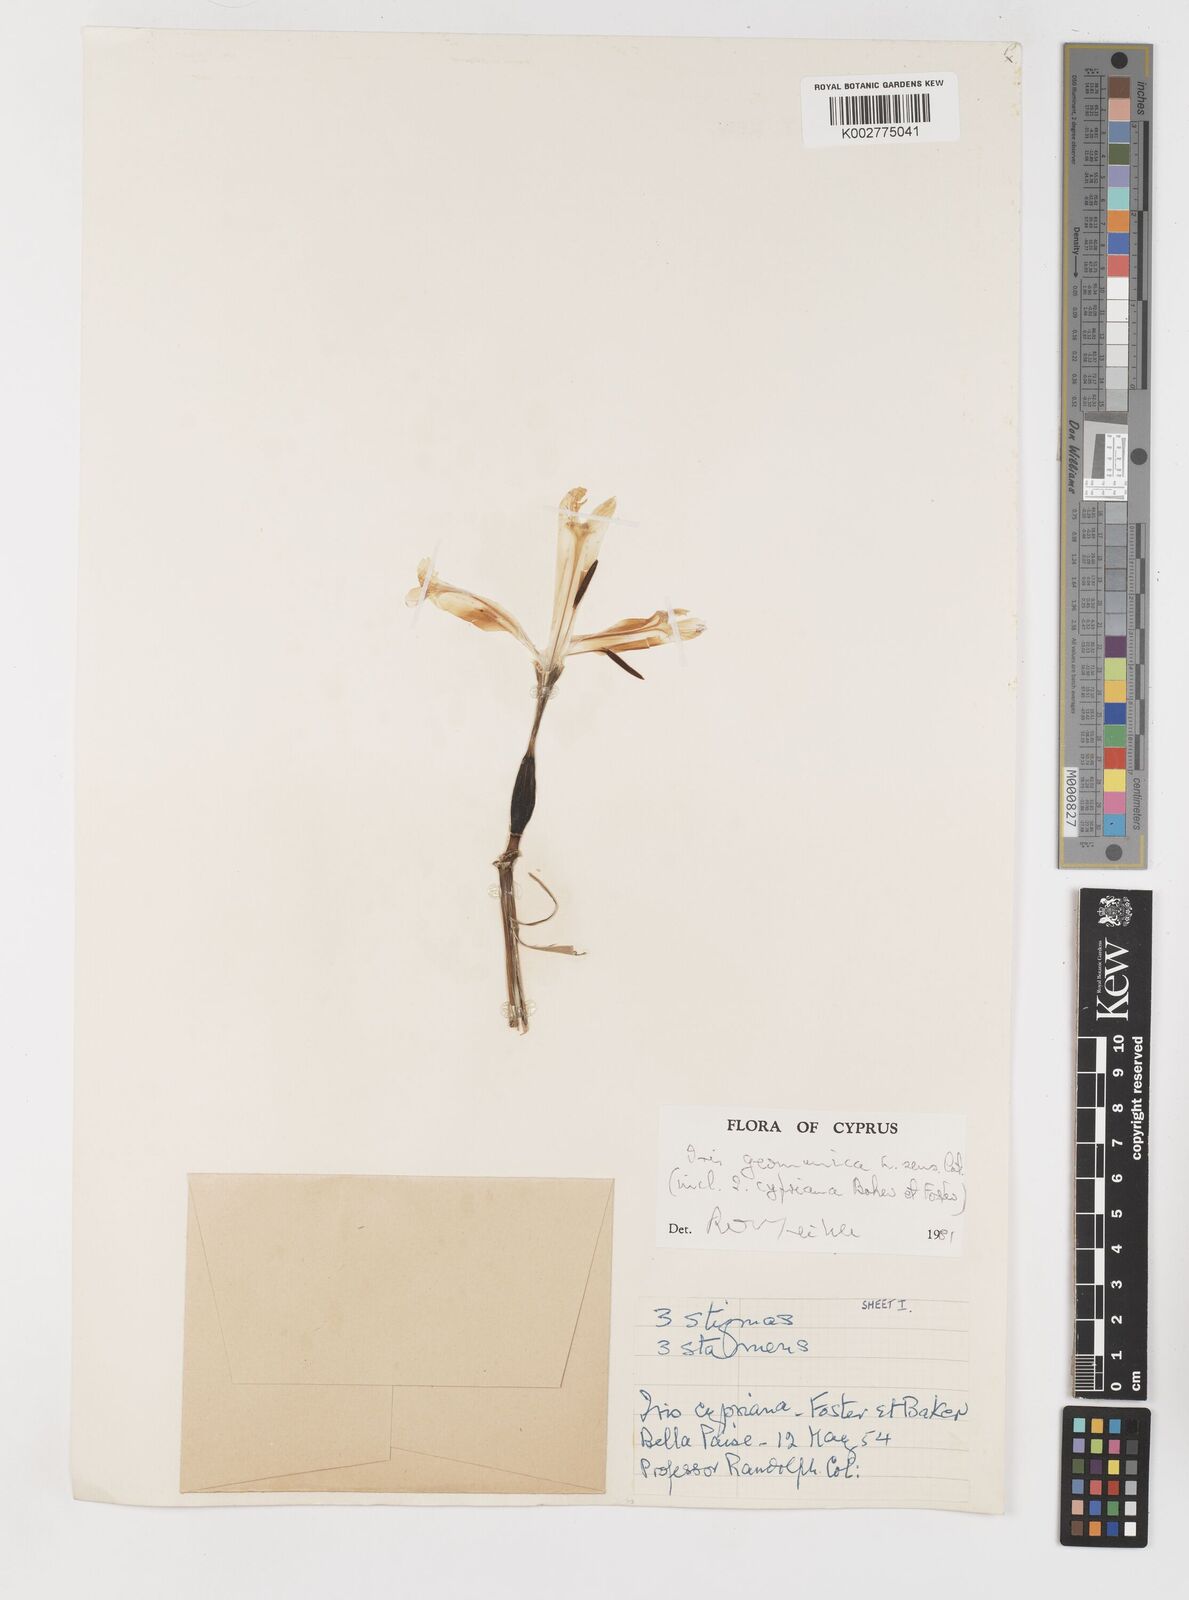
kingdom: Plantae
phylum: Tracheophyta
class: Liliopsida
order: Asparagales
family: Iridaceae
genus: Iris
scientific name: Iris germanica
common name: German iris
